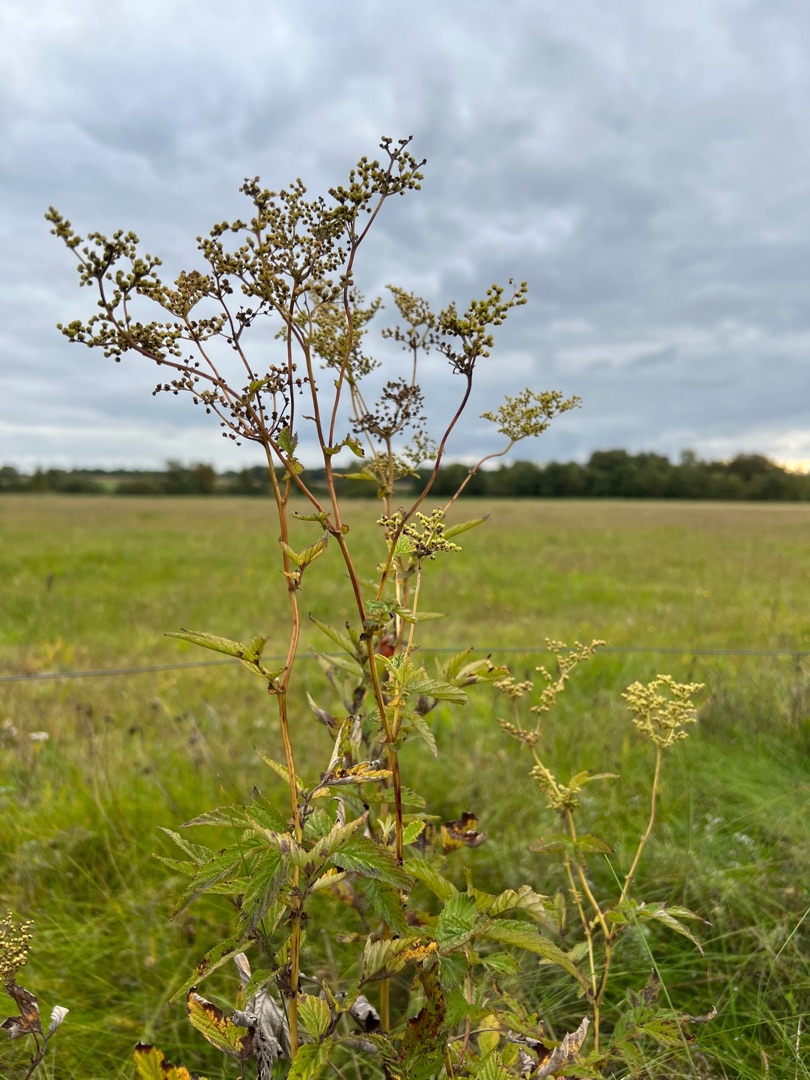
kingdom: Plantae
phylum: Tracheophyta
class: Magnoliopsida
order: Rosales
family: Rosaceae
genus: Filipendula
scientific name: Filipendula ulmaria
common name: Almindelig mjødurt
